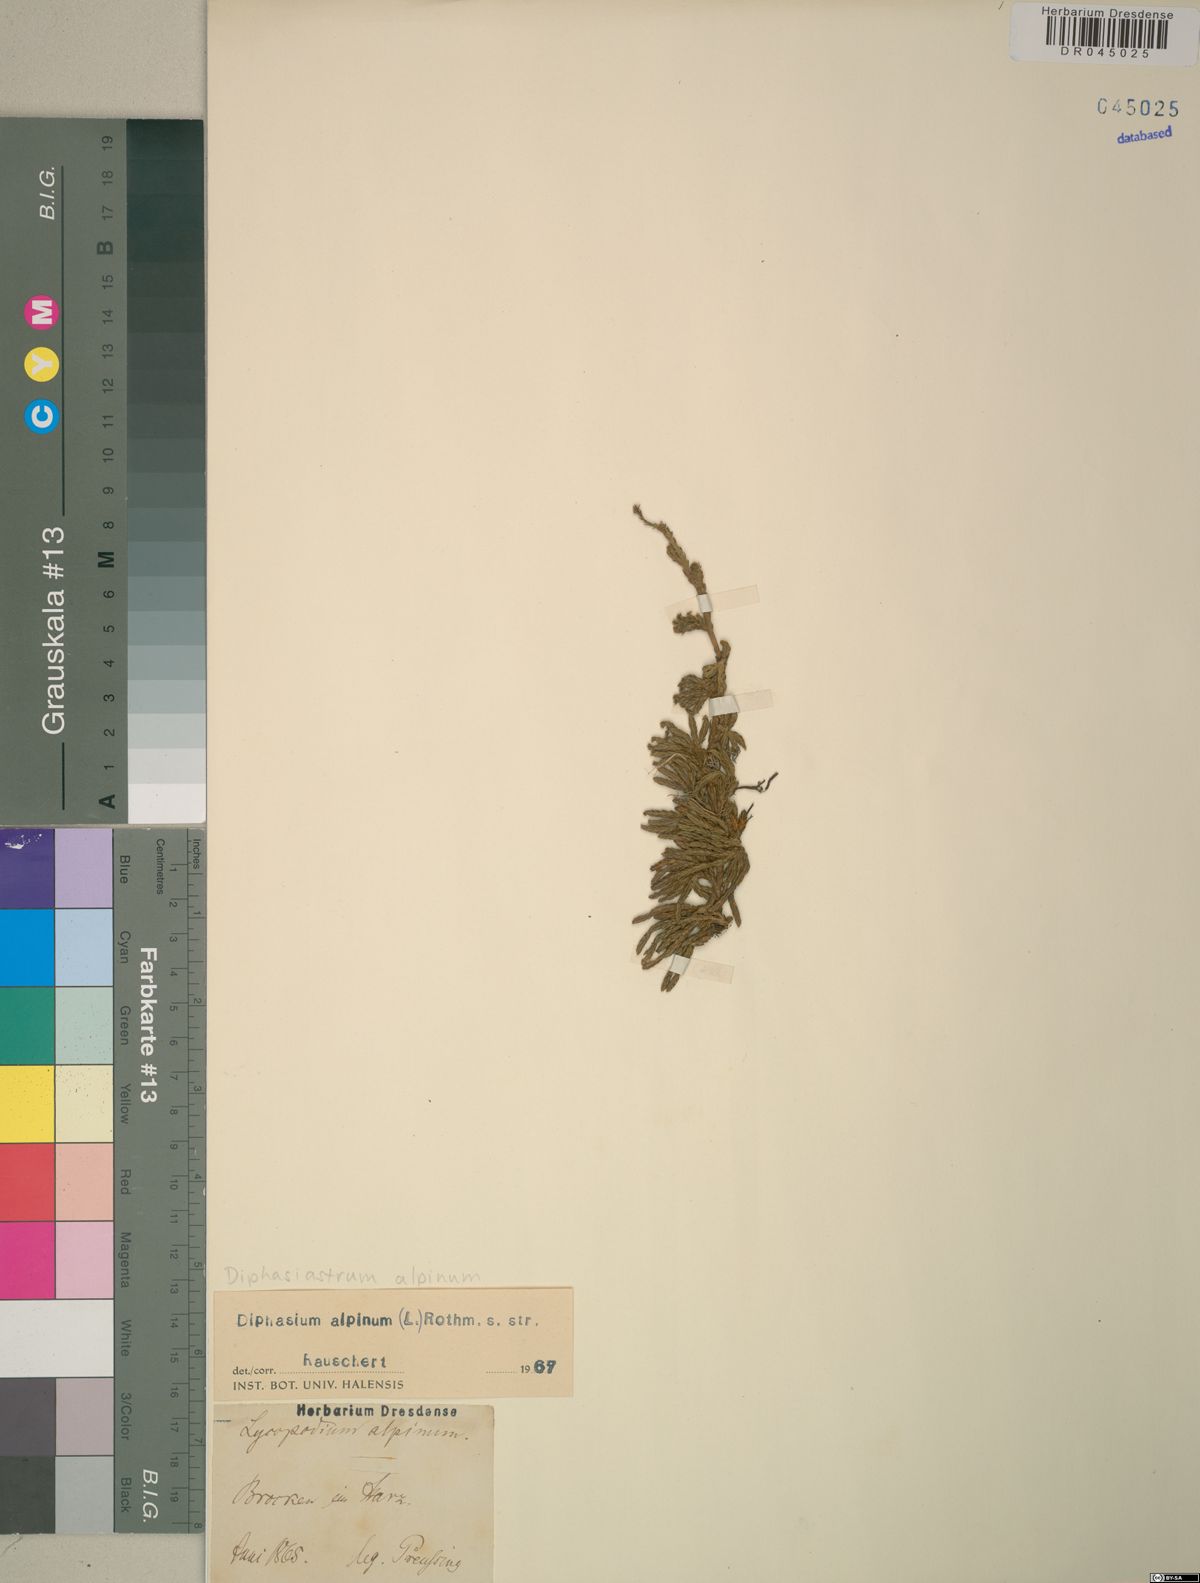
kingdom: Plantae
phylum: Tracheophyta
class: Lycopodiopsida
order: Lycopodiales
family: Lycopodiaceae
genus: Diphasiastrum
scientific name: Diphasiastrum alpinum
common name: Alpine clubmoss
